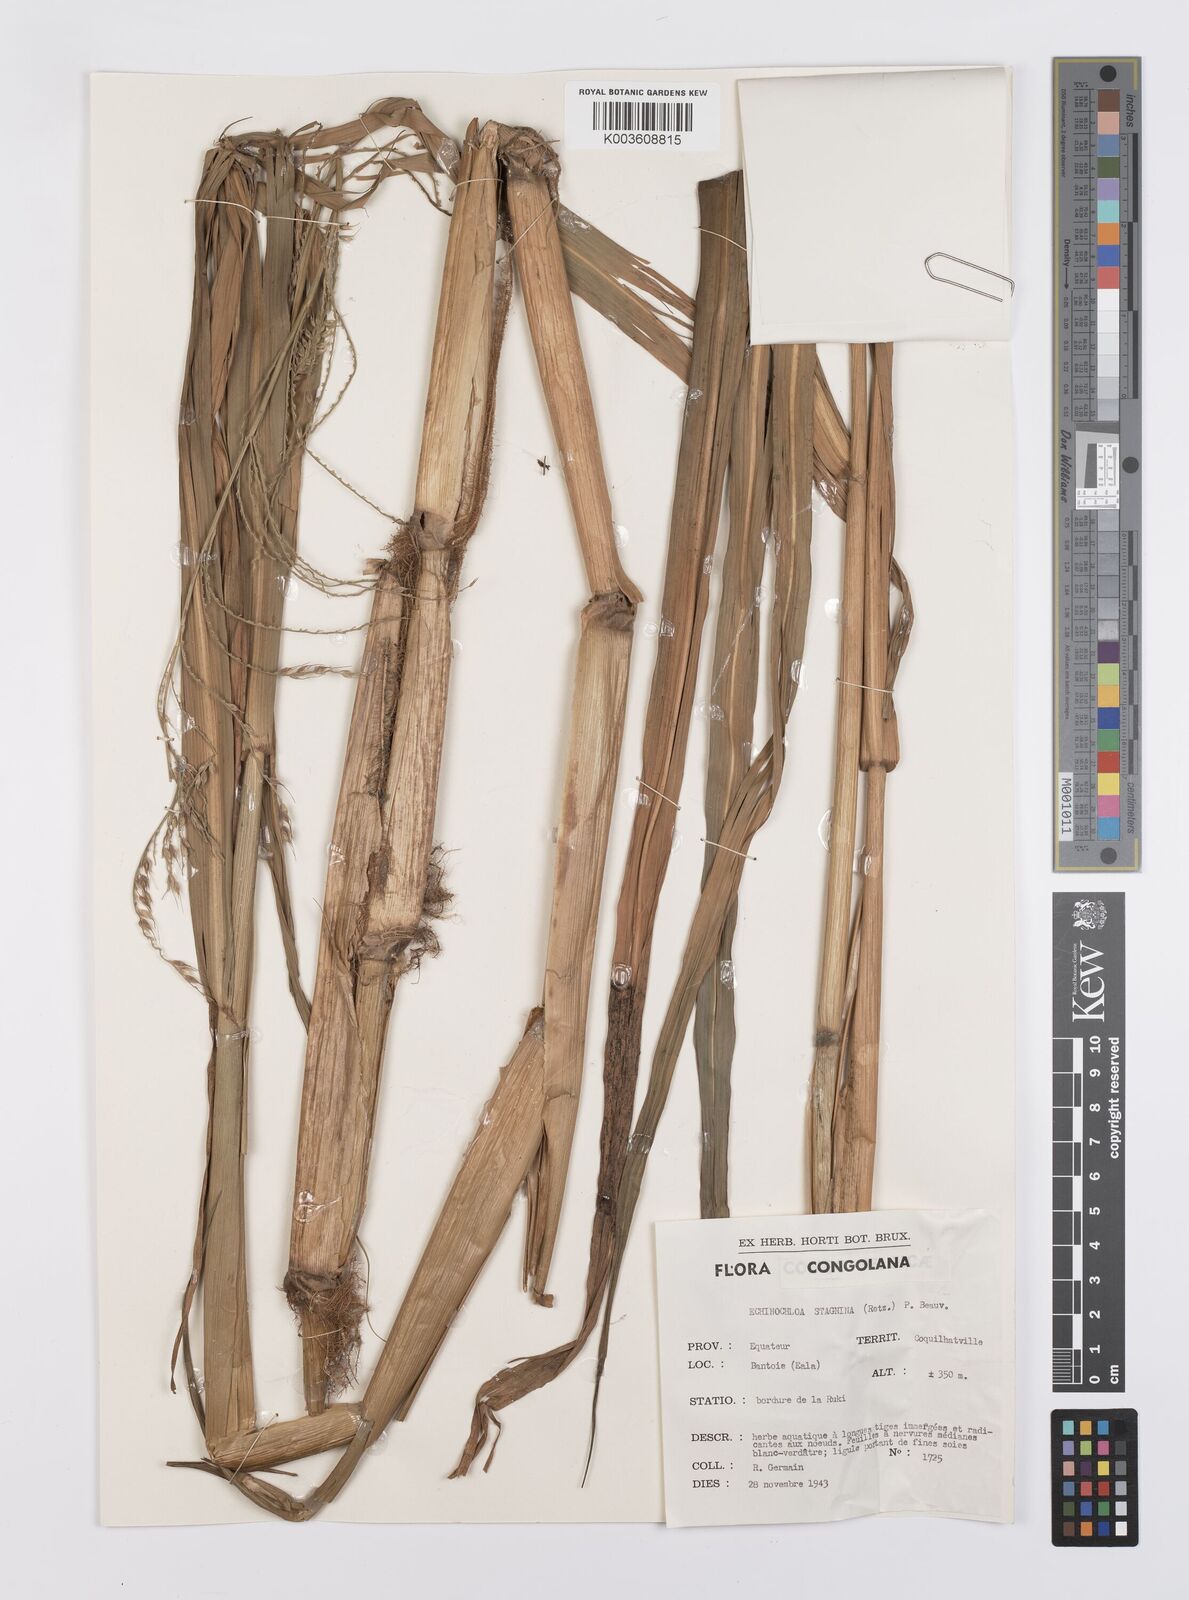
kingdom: Plantae
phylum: Tracheophyta
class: Liliopsida
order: Poales
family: Poaceae
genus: Echinochloa
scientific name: Echinochloa stagnina
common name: Burgu grass
